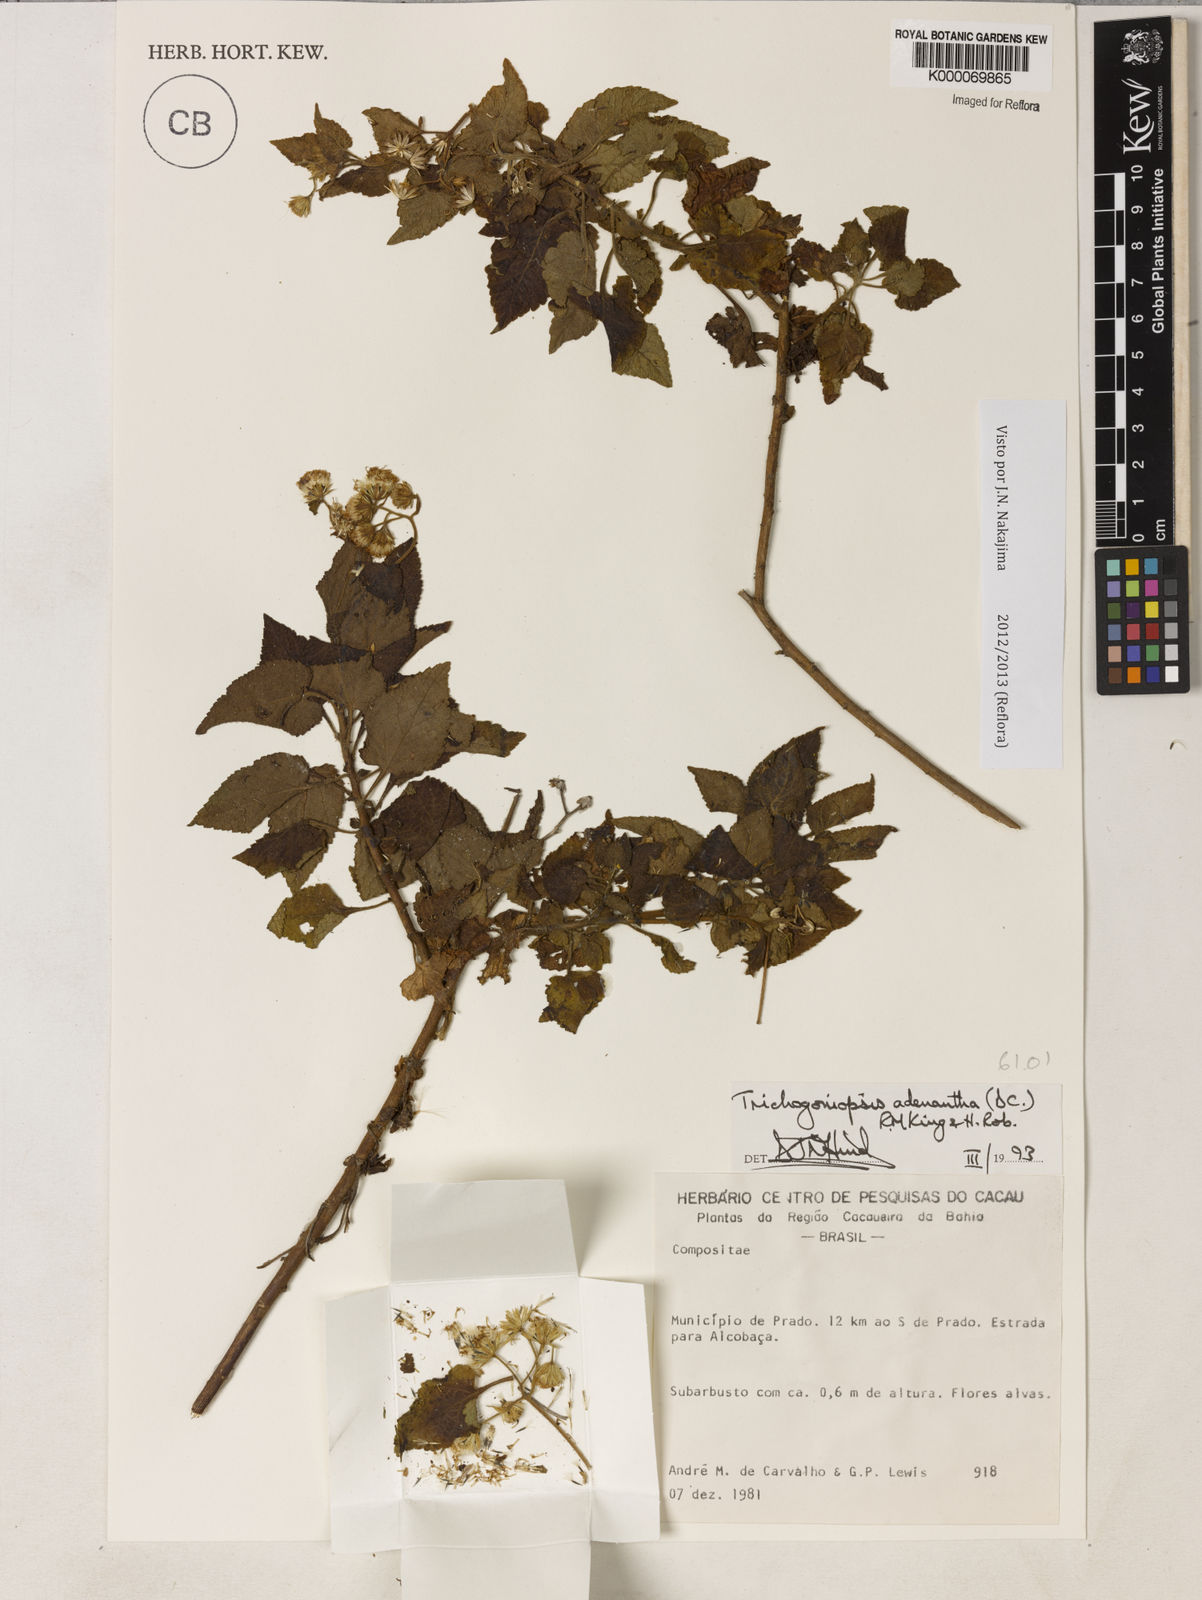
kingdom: Plantae
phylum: Tracheophyta
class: Magnoliopsida
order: Asterales
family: Asteraceae
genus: Trichogoniopsis
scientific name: Trichogoniopsis adenantha
